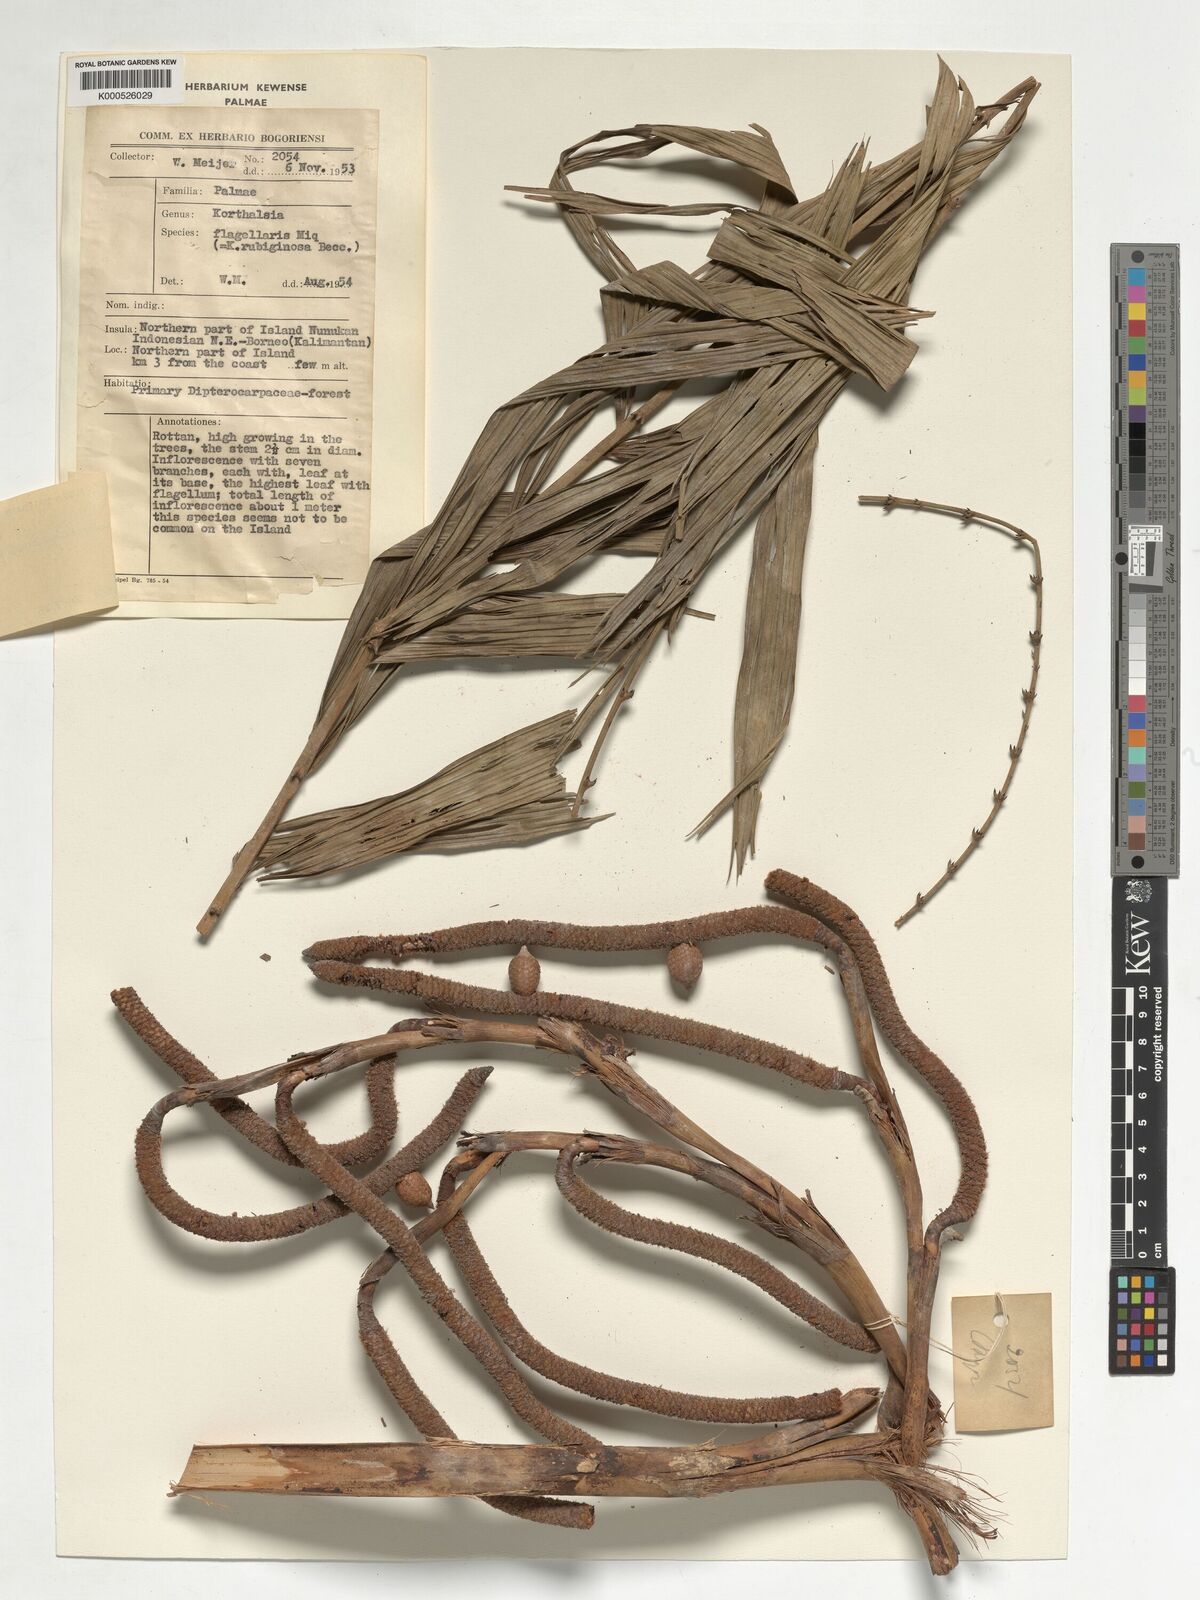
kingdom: Plantae
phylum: Tracheophyta
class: Liliopsida
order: Arecales
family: Arecaceae
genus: Korthalsia
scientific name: Korthalsia echinometra
